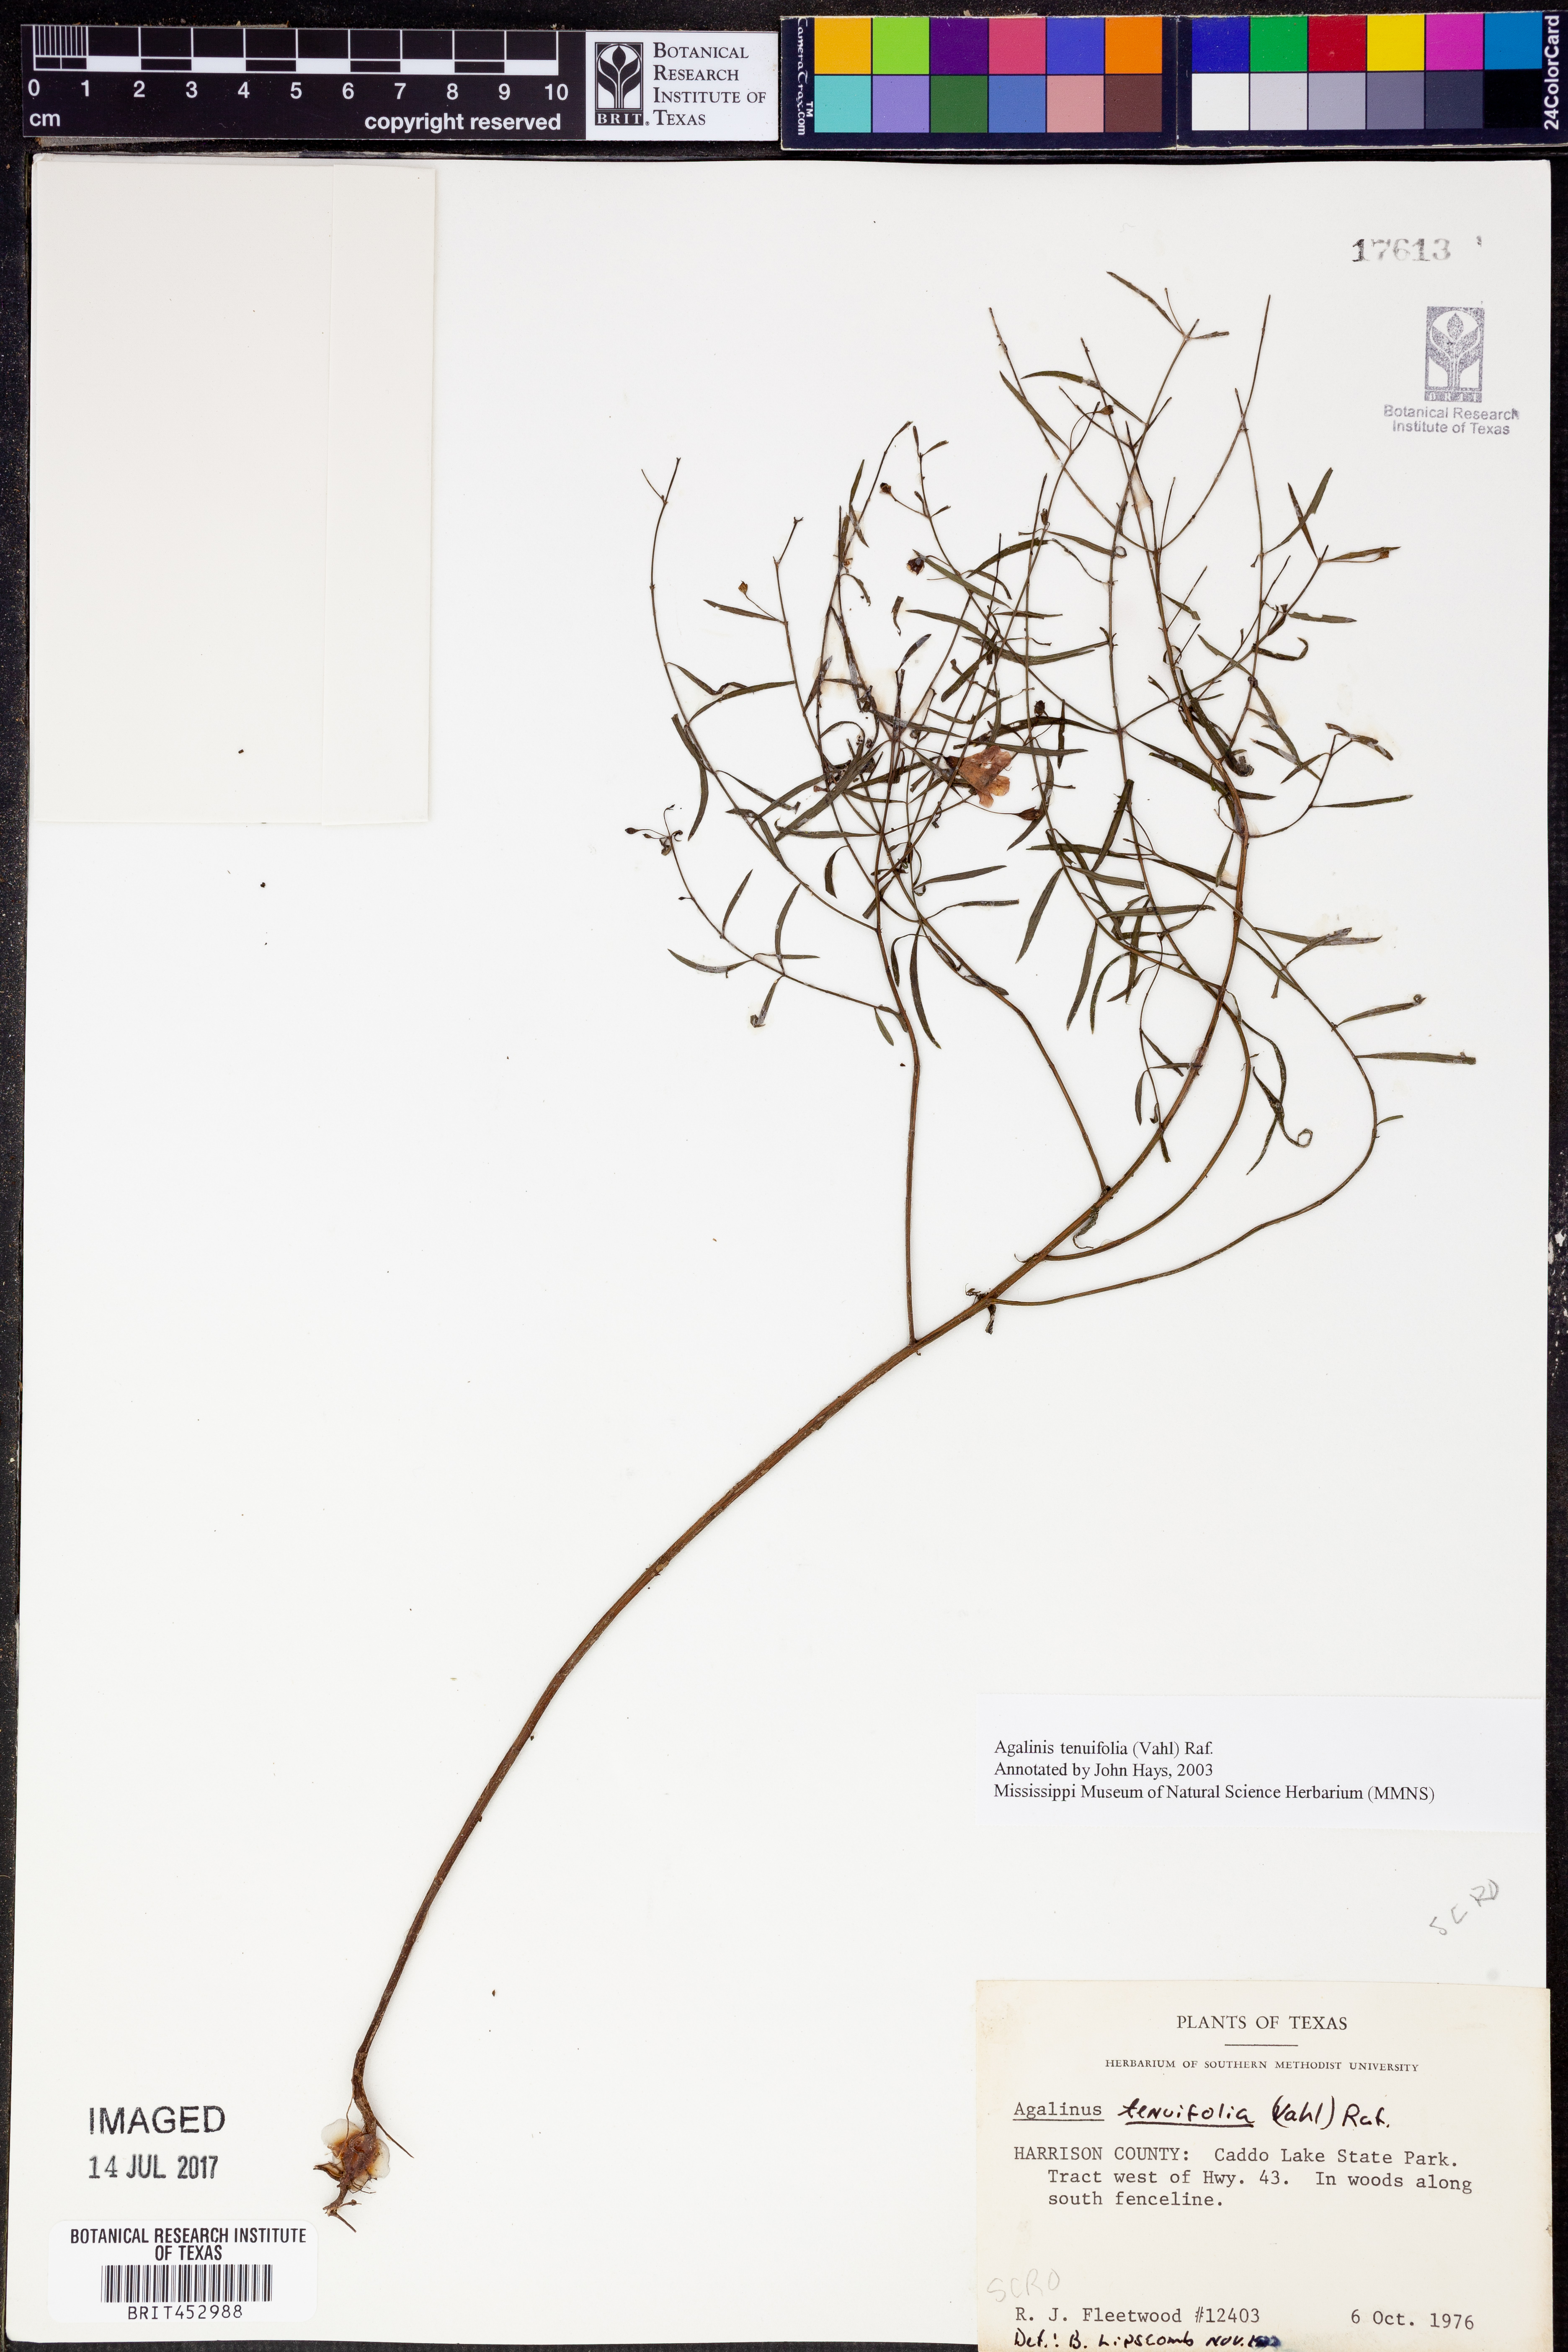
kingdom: Plantae
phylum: Tracheophyta
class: Magnoliopsida
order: Lamiales
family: Orobanchaceae
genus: Agalinis
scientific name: Agalinis tenuifolia
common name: Slender agalinis
